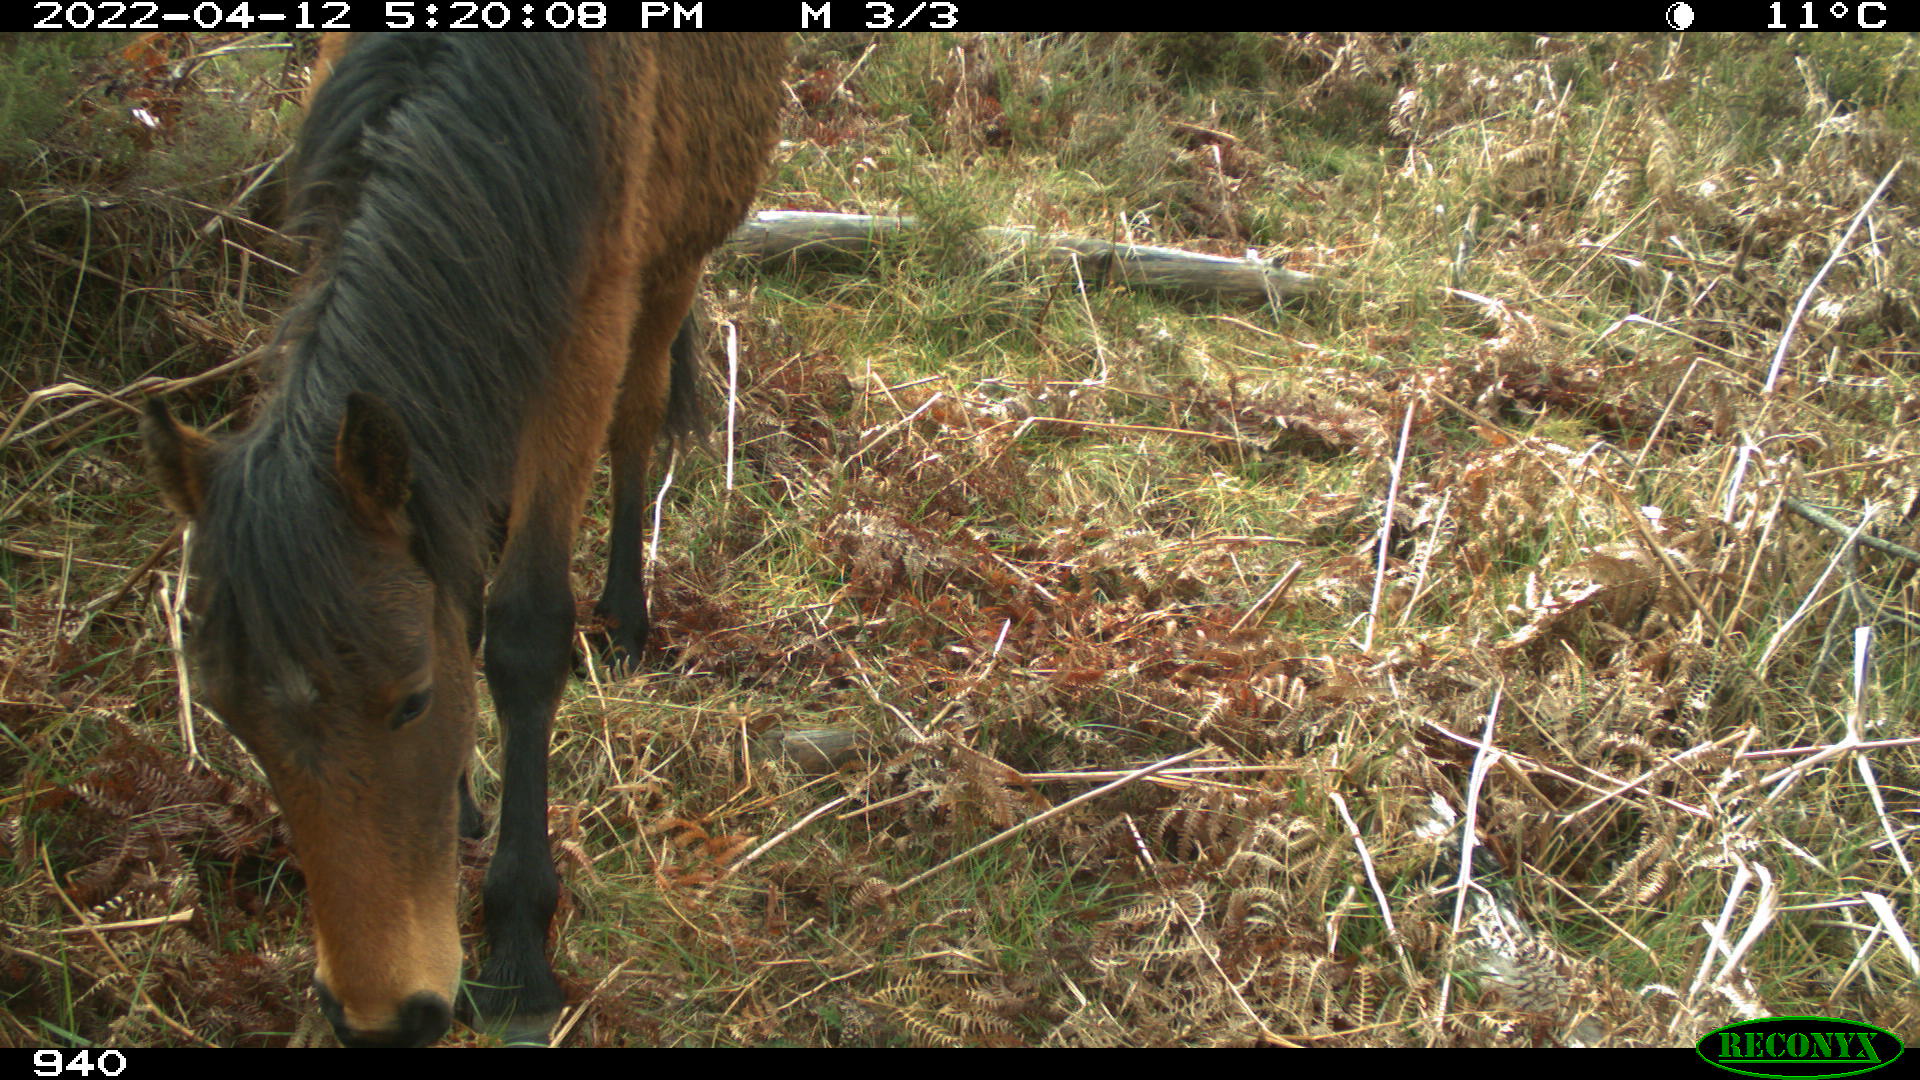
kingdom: Animalia
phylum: Chordata
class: Mammalia
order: Perissodactyla
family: Equidae
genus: Equus
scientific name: Equus caballus
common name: Horse
